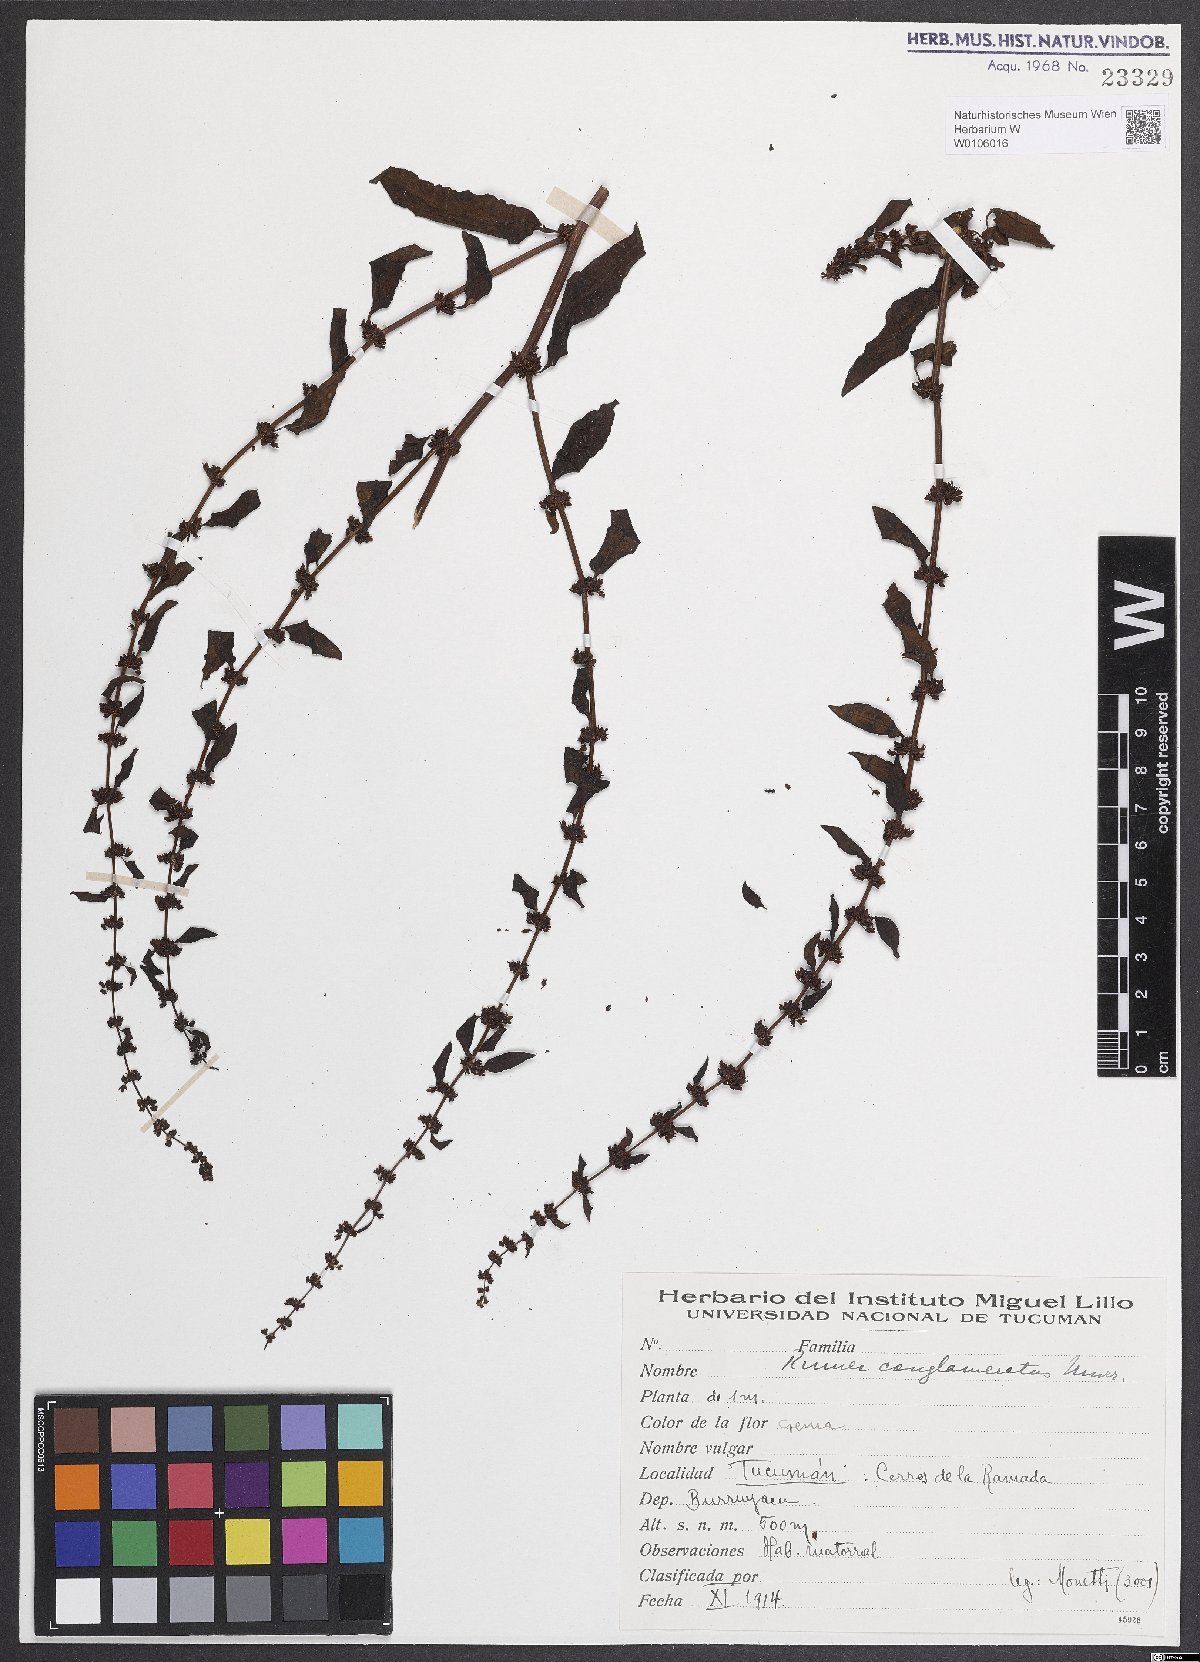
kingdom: Plantae
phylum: Tracheophyta
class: Magnoliopsida
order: Caryophyllales
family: Polygonaceae
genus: Rumex
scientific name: Rumex conglomeratus
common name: Clustered dock
